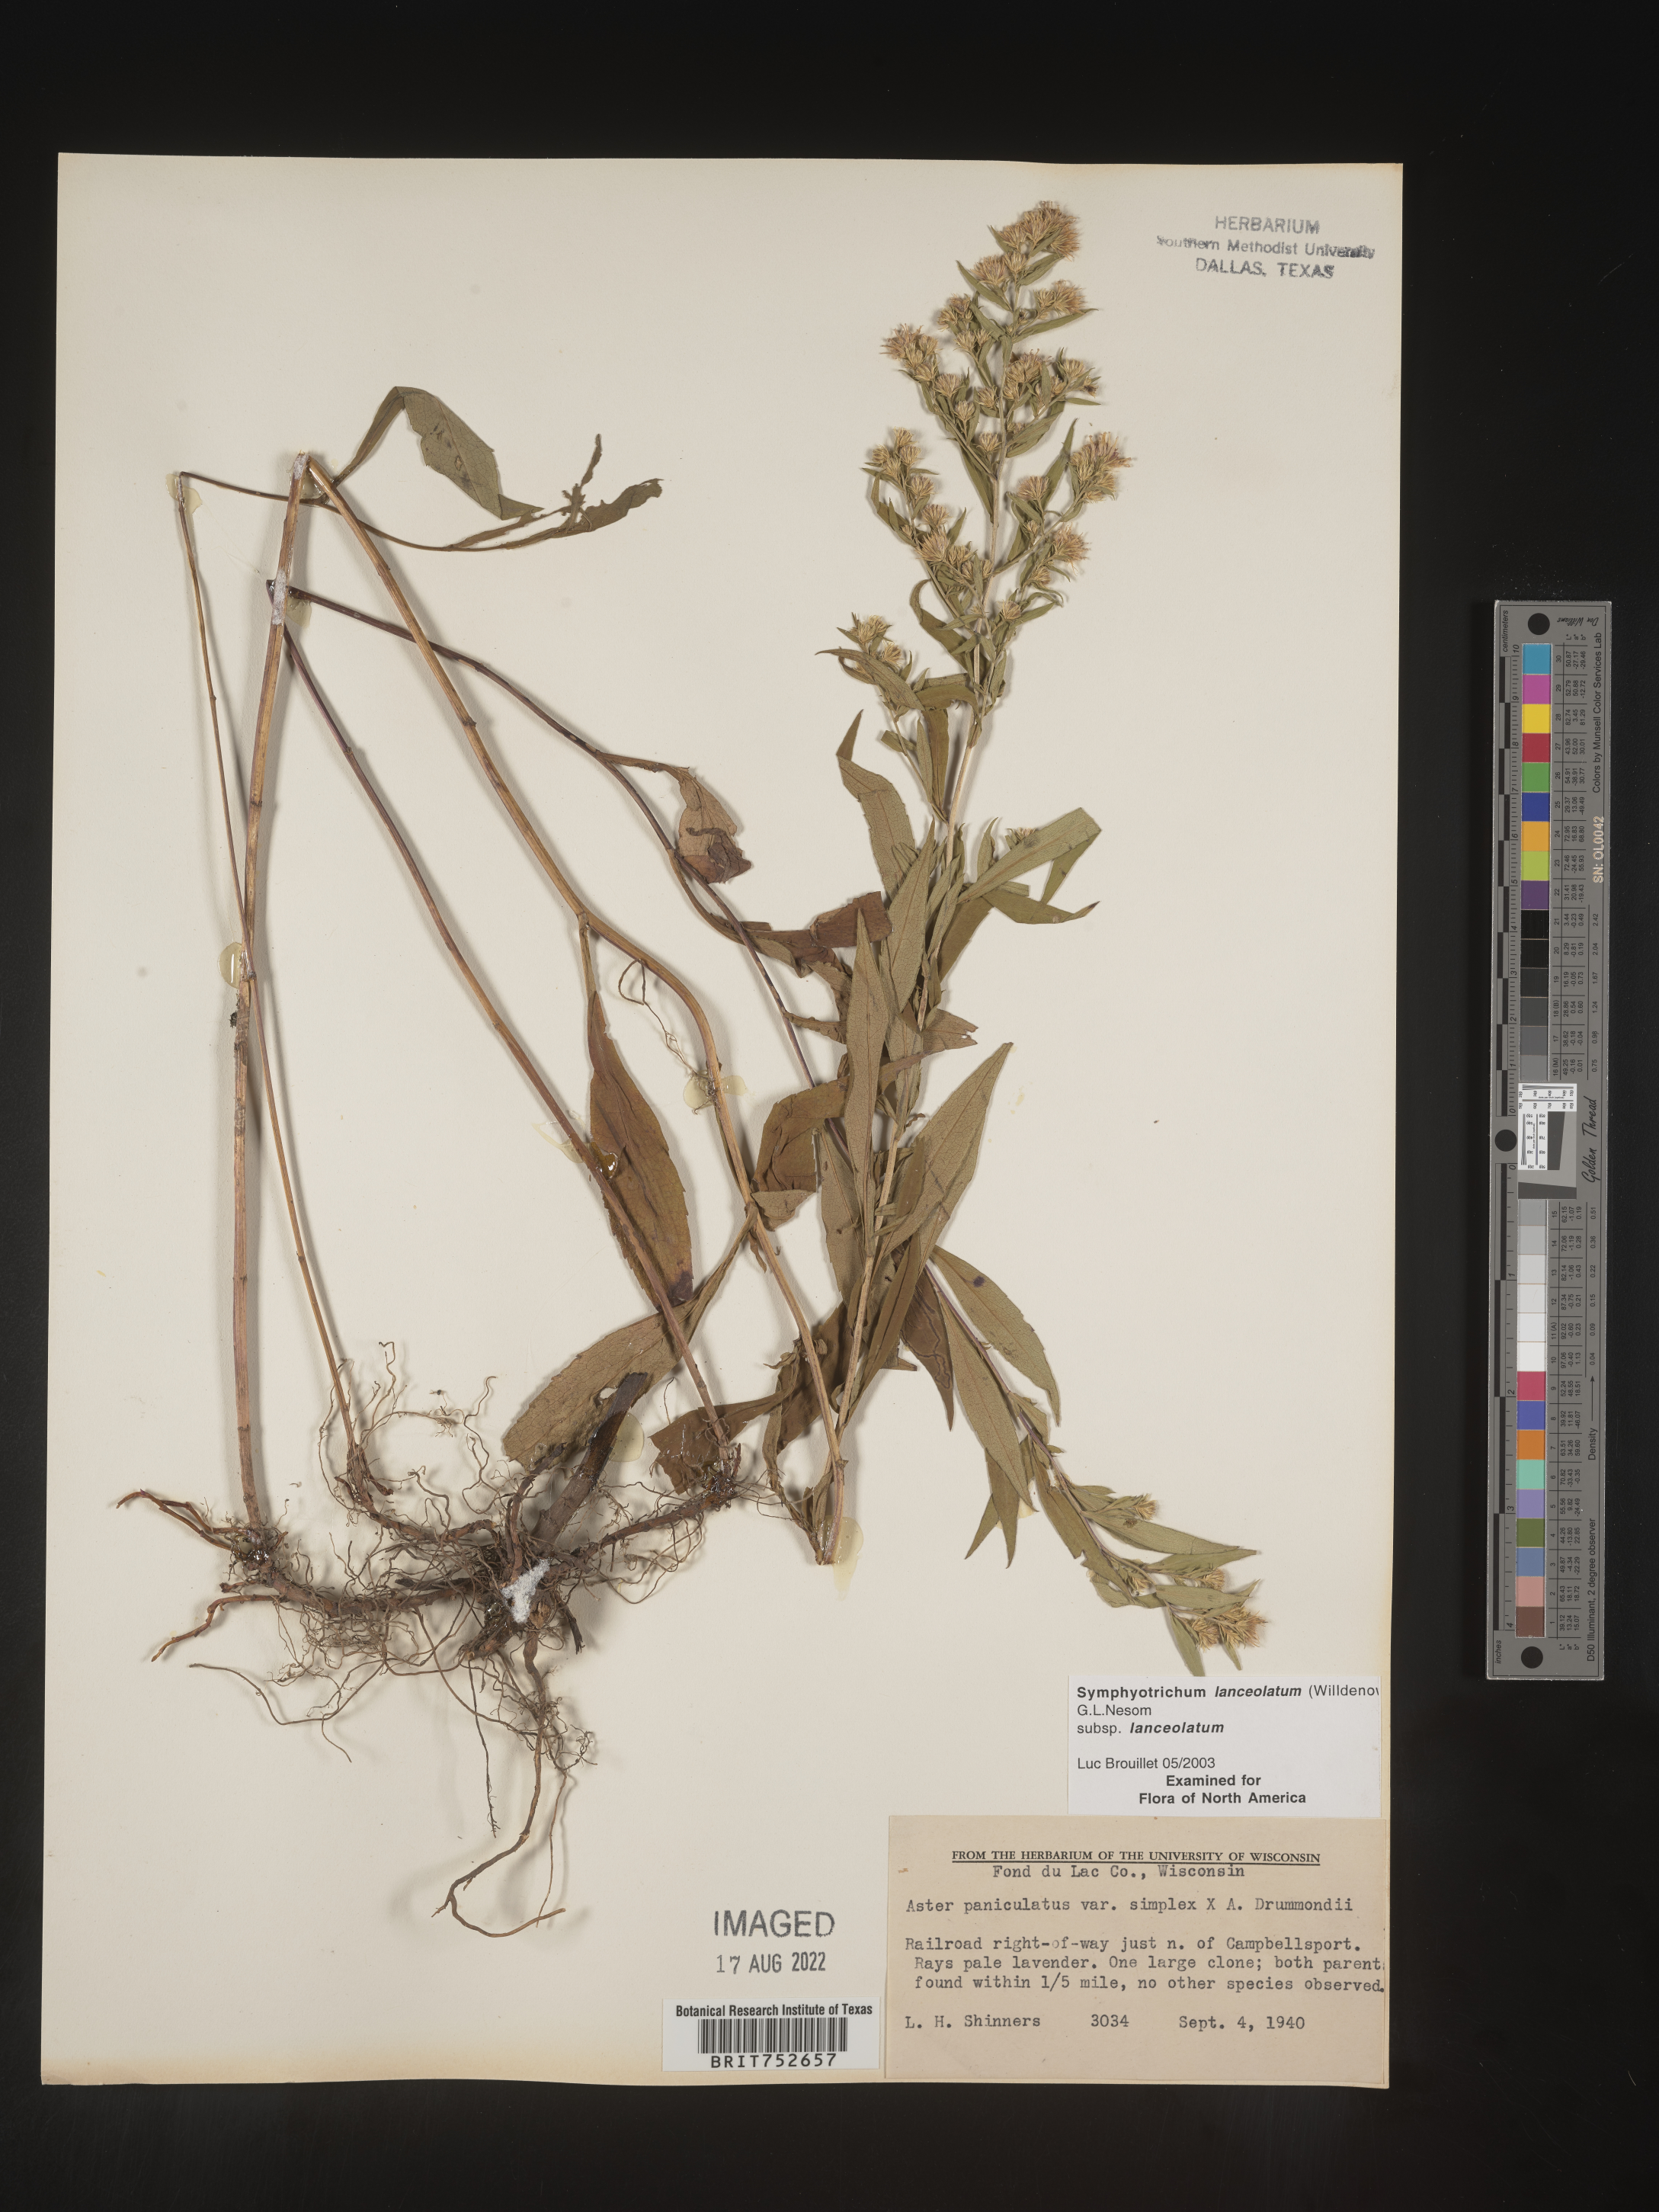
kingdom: Plantae
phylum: Tracheophyta
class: Magnoliopsida
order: Asterales
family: Asteraceae
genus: Symphyotrichum
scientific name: Symphyotrichum lanceolatum
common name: Panicled aster
